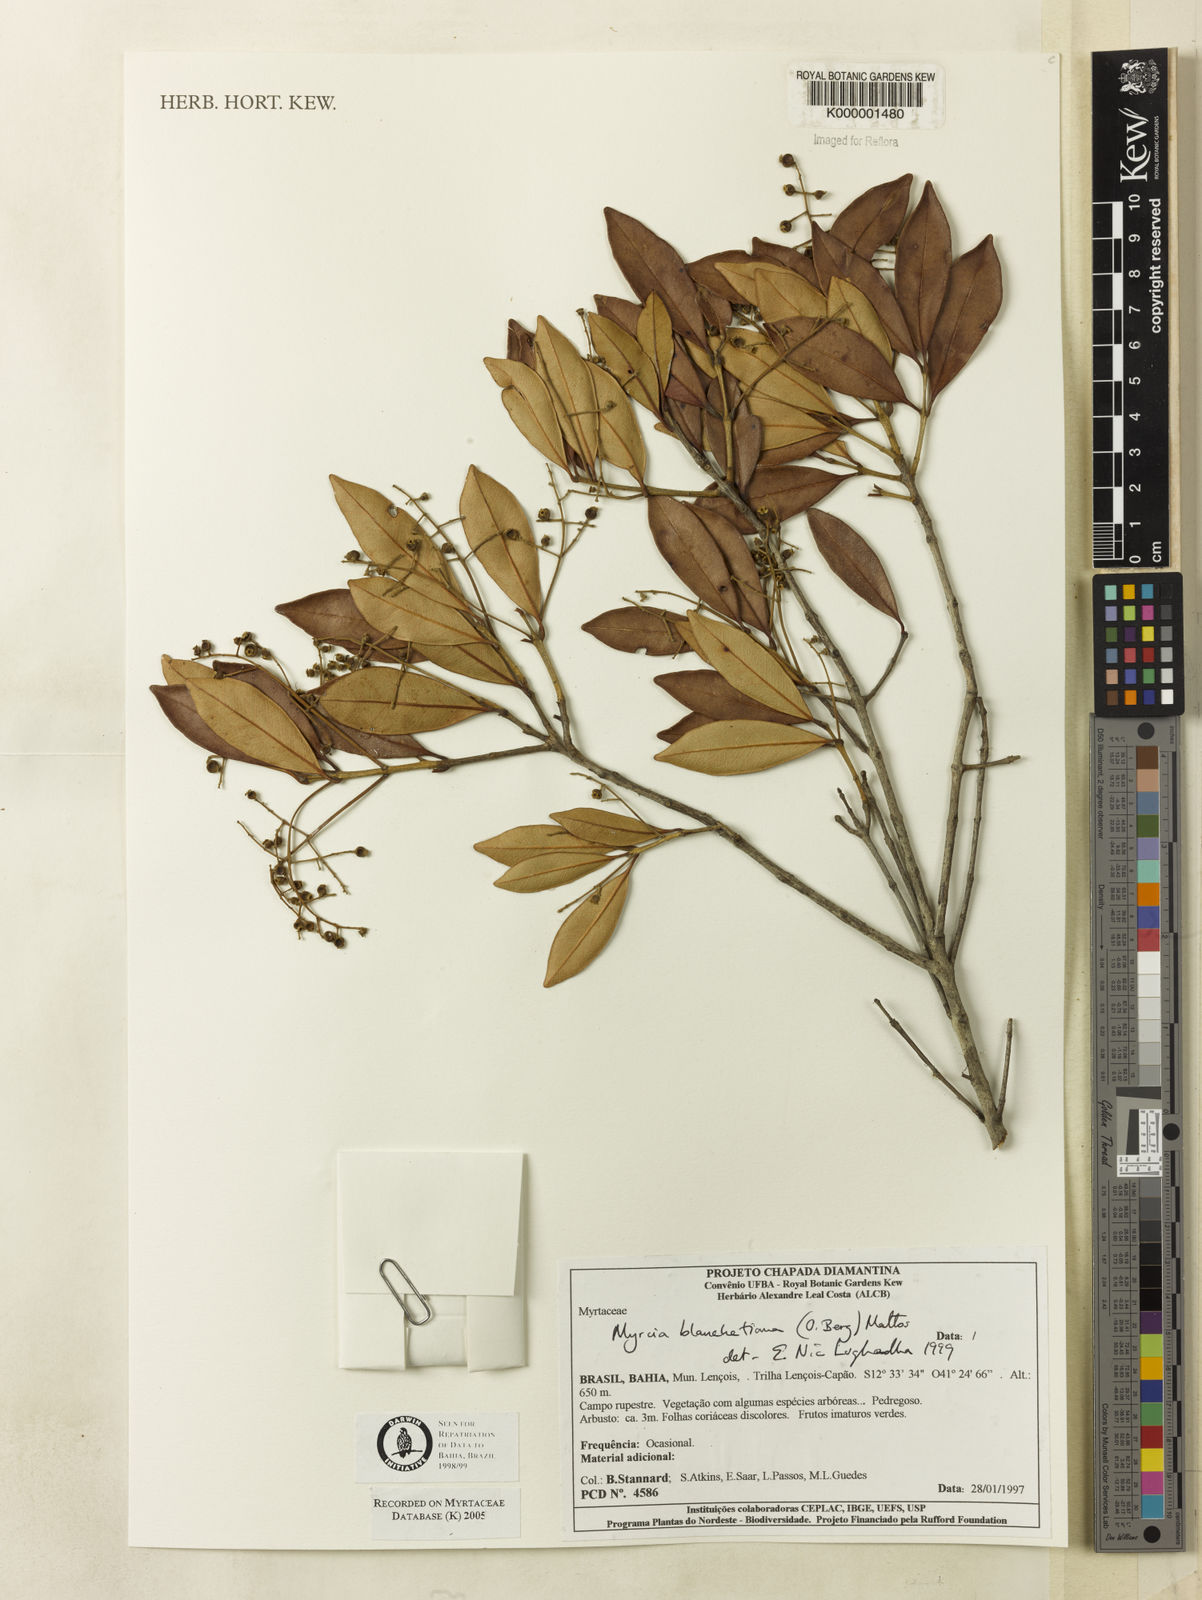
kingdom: Plantae
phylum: Tracheophyta
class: Magnoliopsida
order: Myrtales
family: Myrtaceae
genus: Myrcia
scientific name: Myrcia blanchetiana
